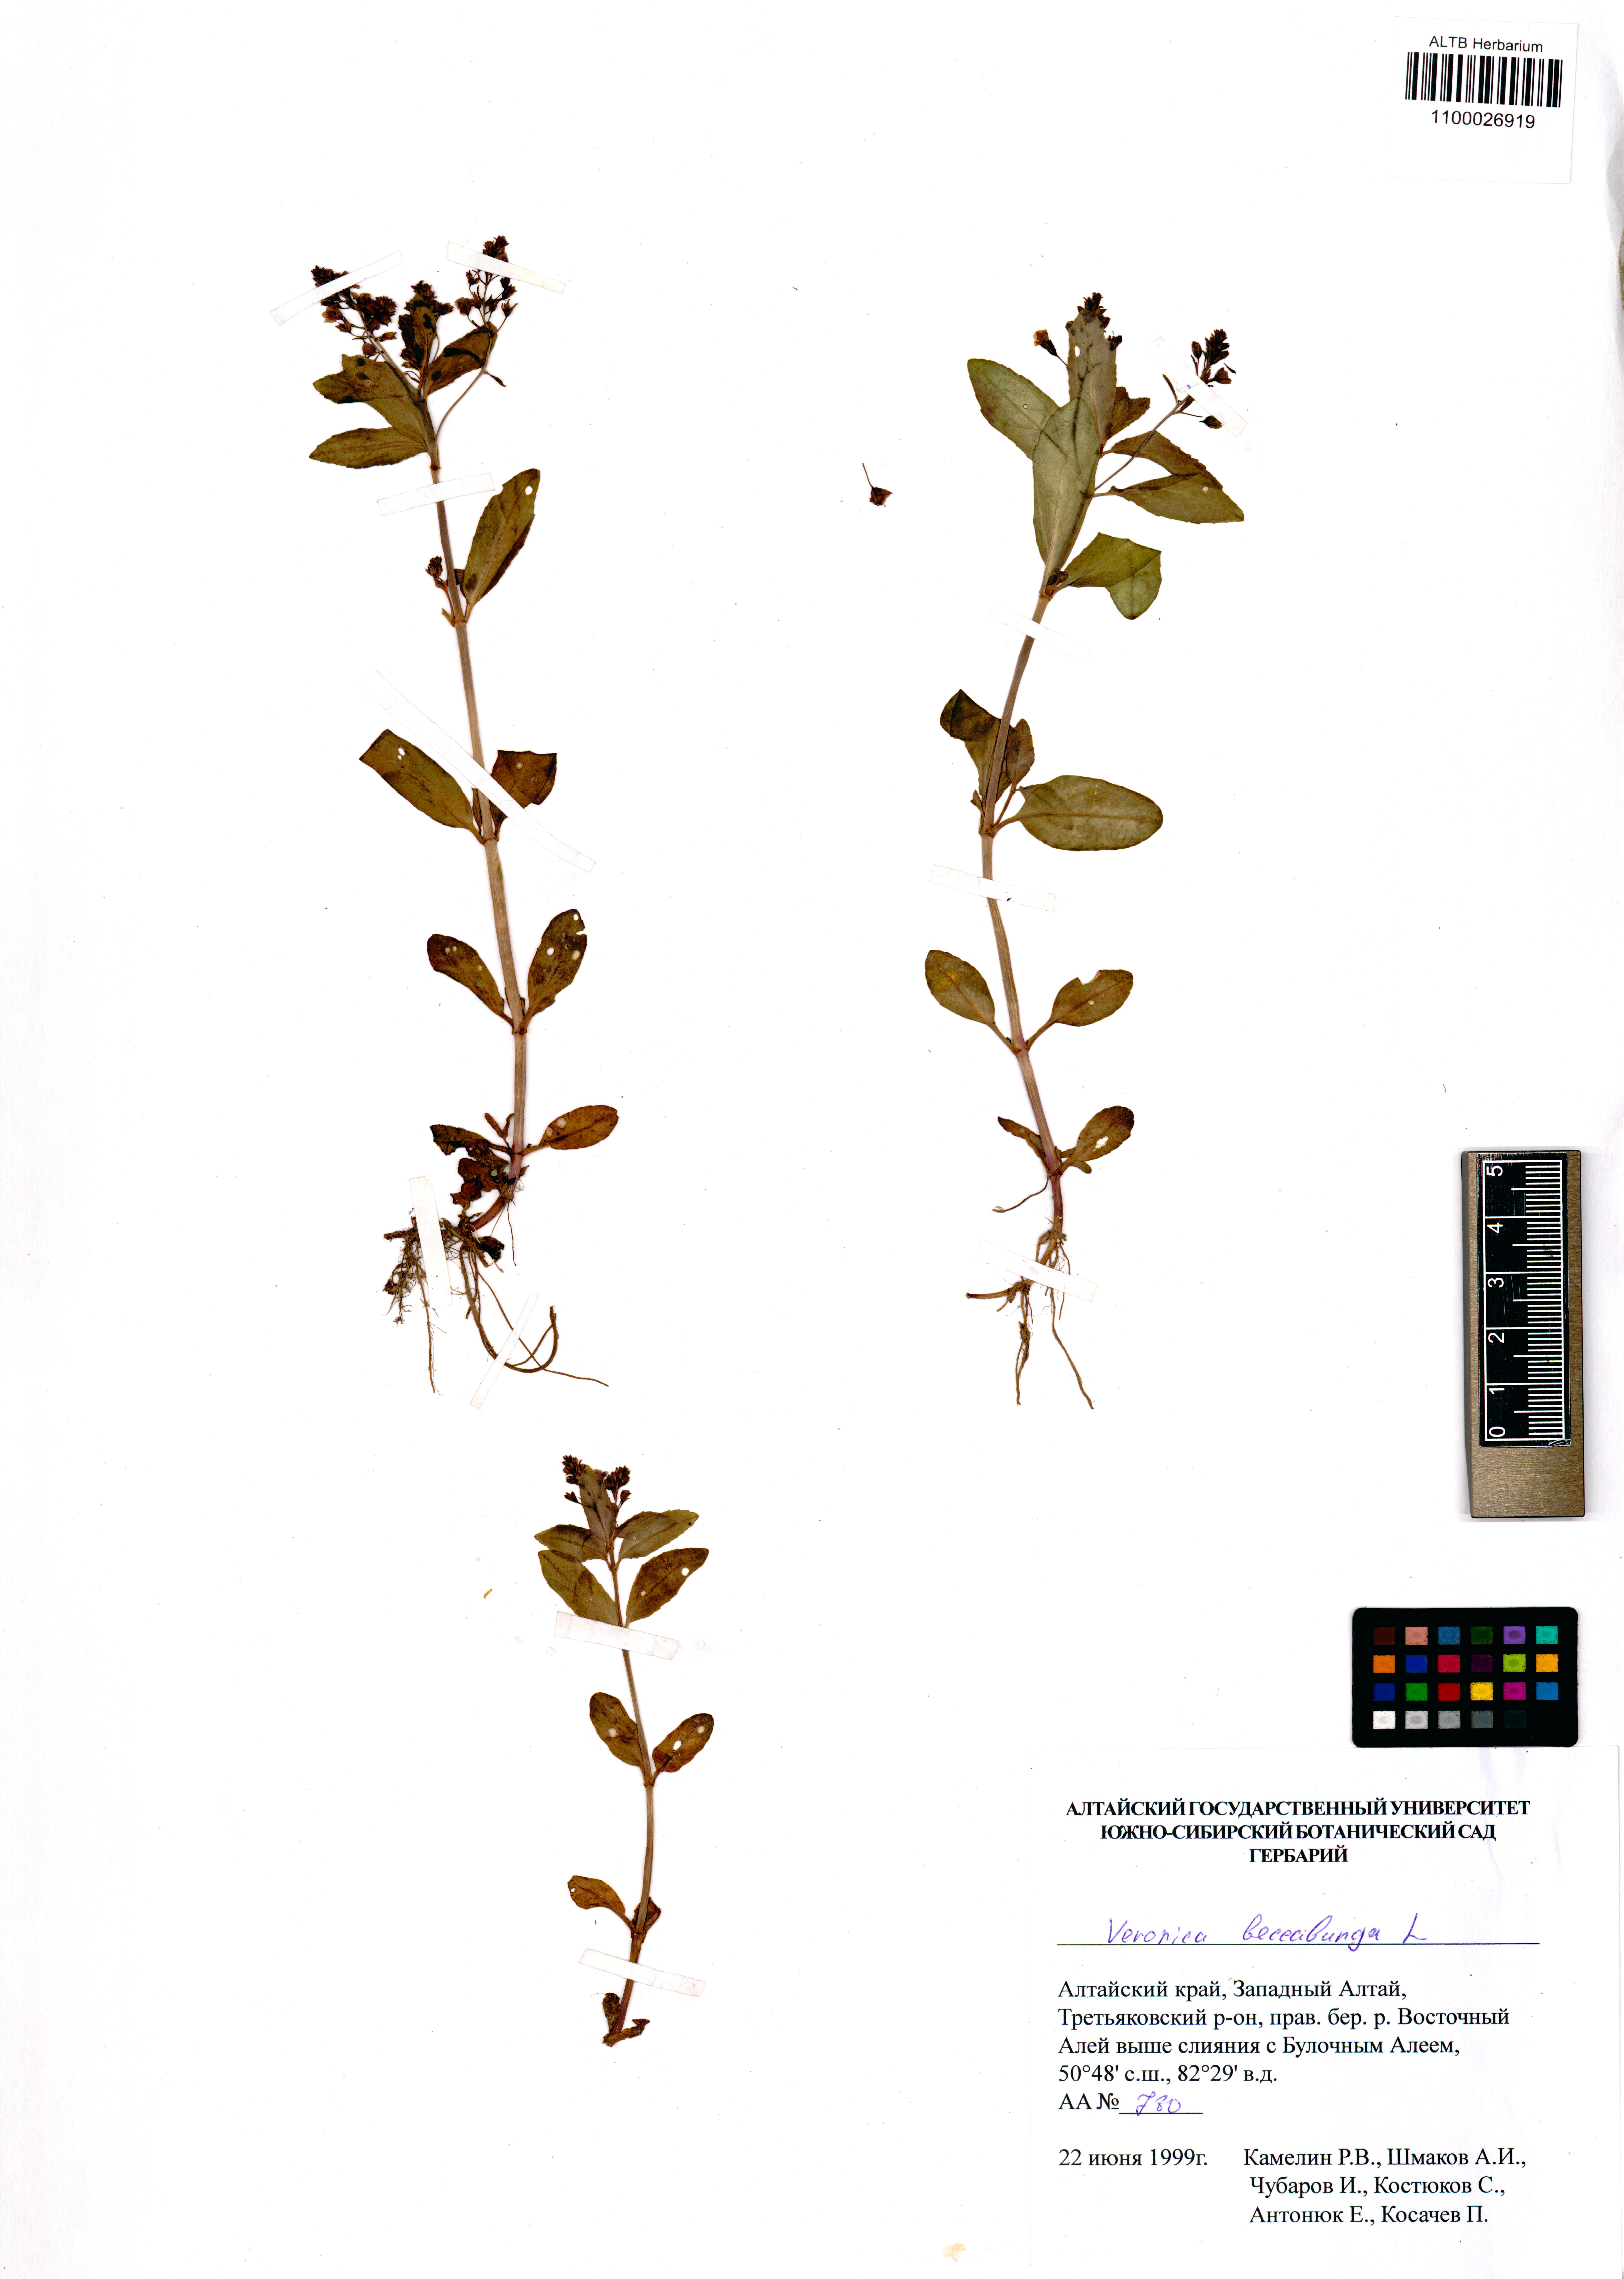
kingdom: Plantae
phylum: Tracheophyta
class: Magnoliopsida
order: Lamiales
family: Plantaginaceae
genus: Veronica
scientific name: Veronica beccabunga
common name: Brooklime
